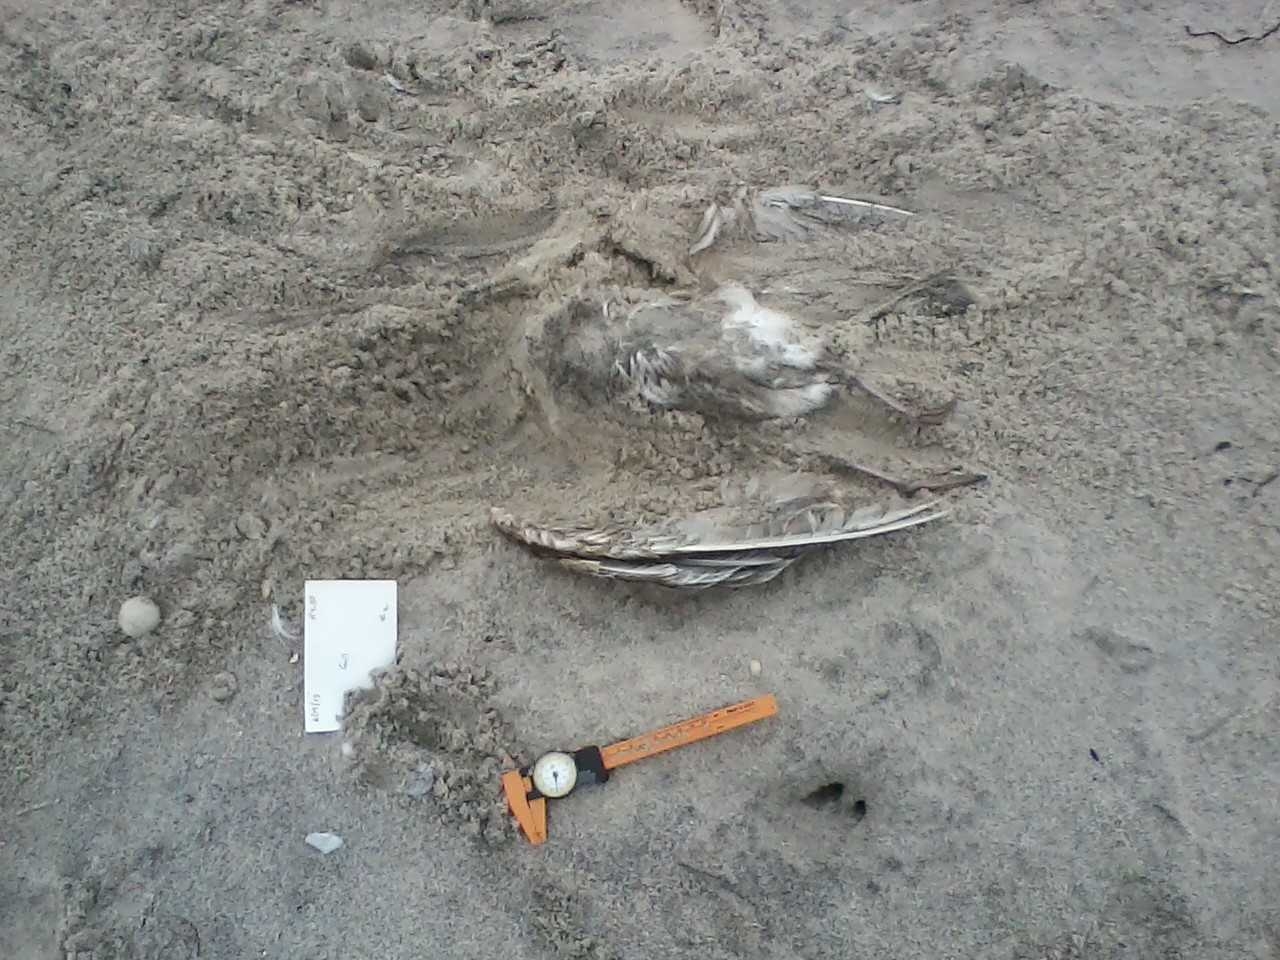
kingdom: Animalia
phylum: Chordata
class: Aves
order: Anseriformes
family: Anatidae
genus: Melanitta
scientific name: Melanitta nigra
